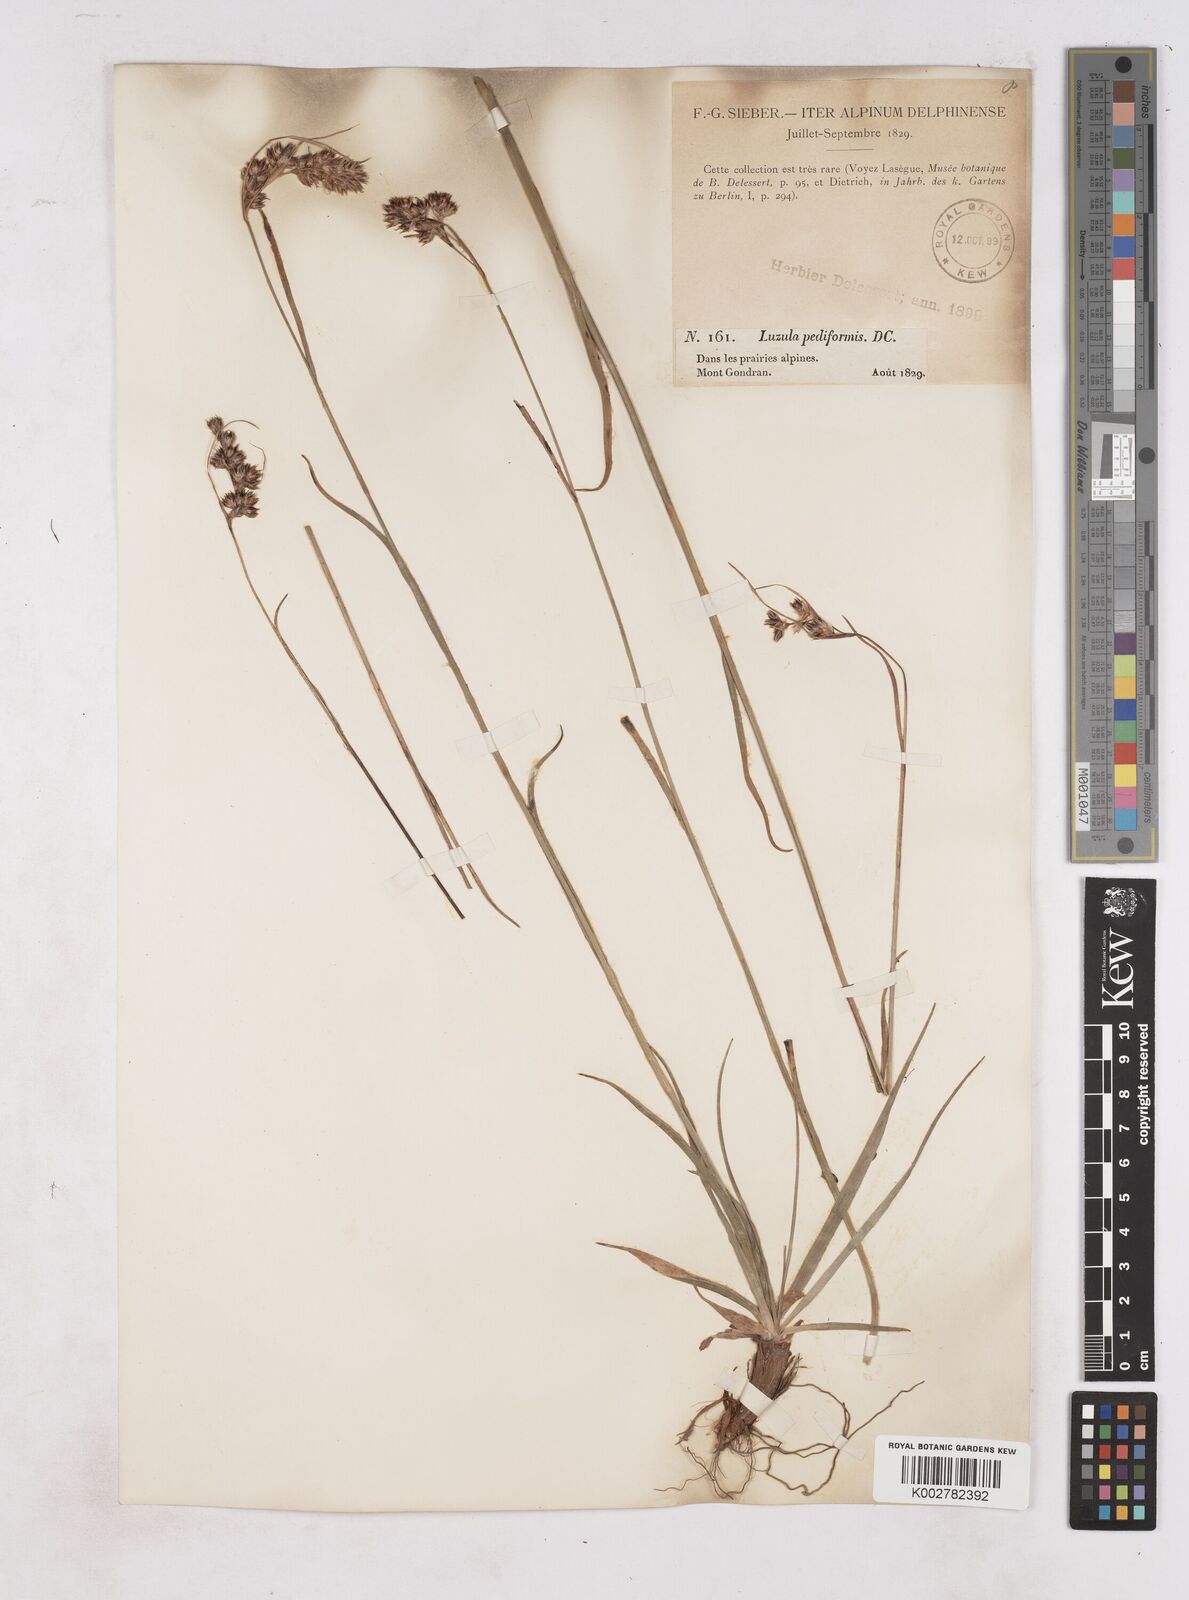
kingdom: Plantae
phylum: Tracheophyta
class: Liliopsida
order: Poales
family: Juncaceae
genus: Luzula
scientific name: Luzula pediformis
